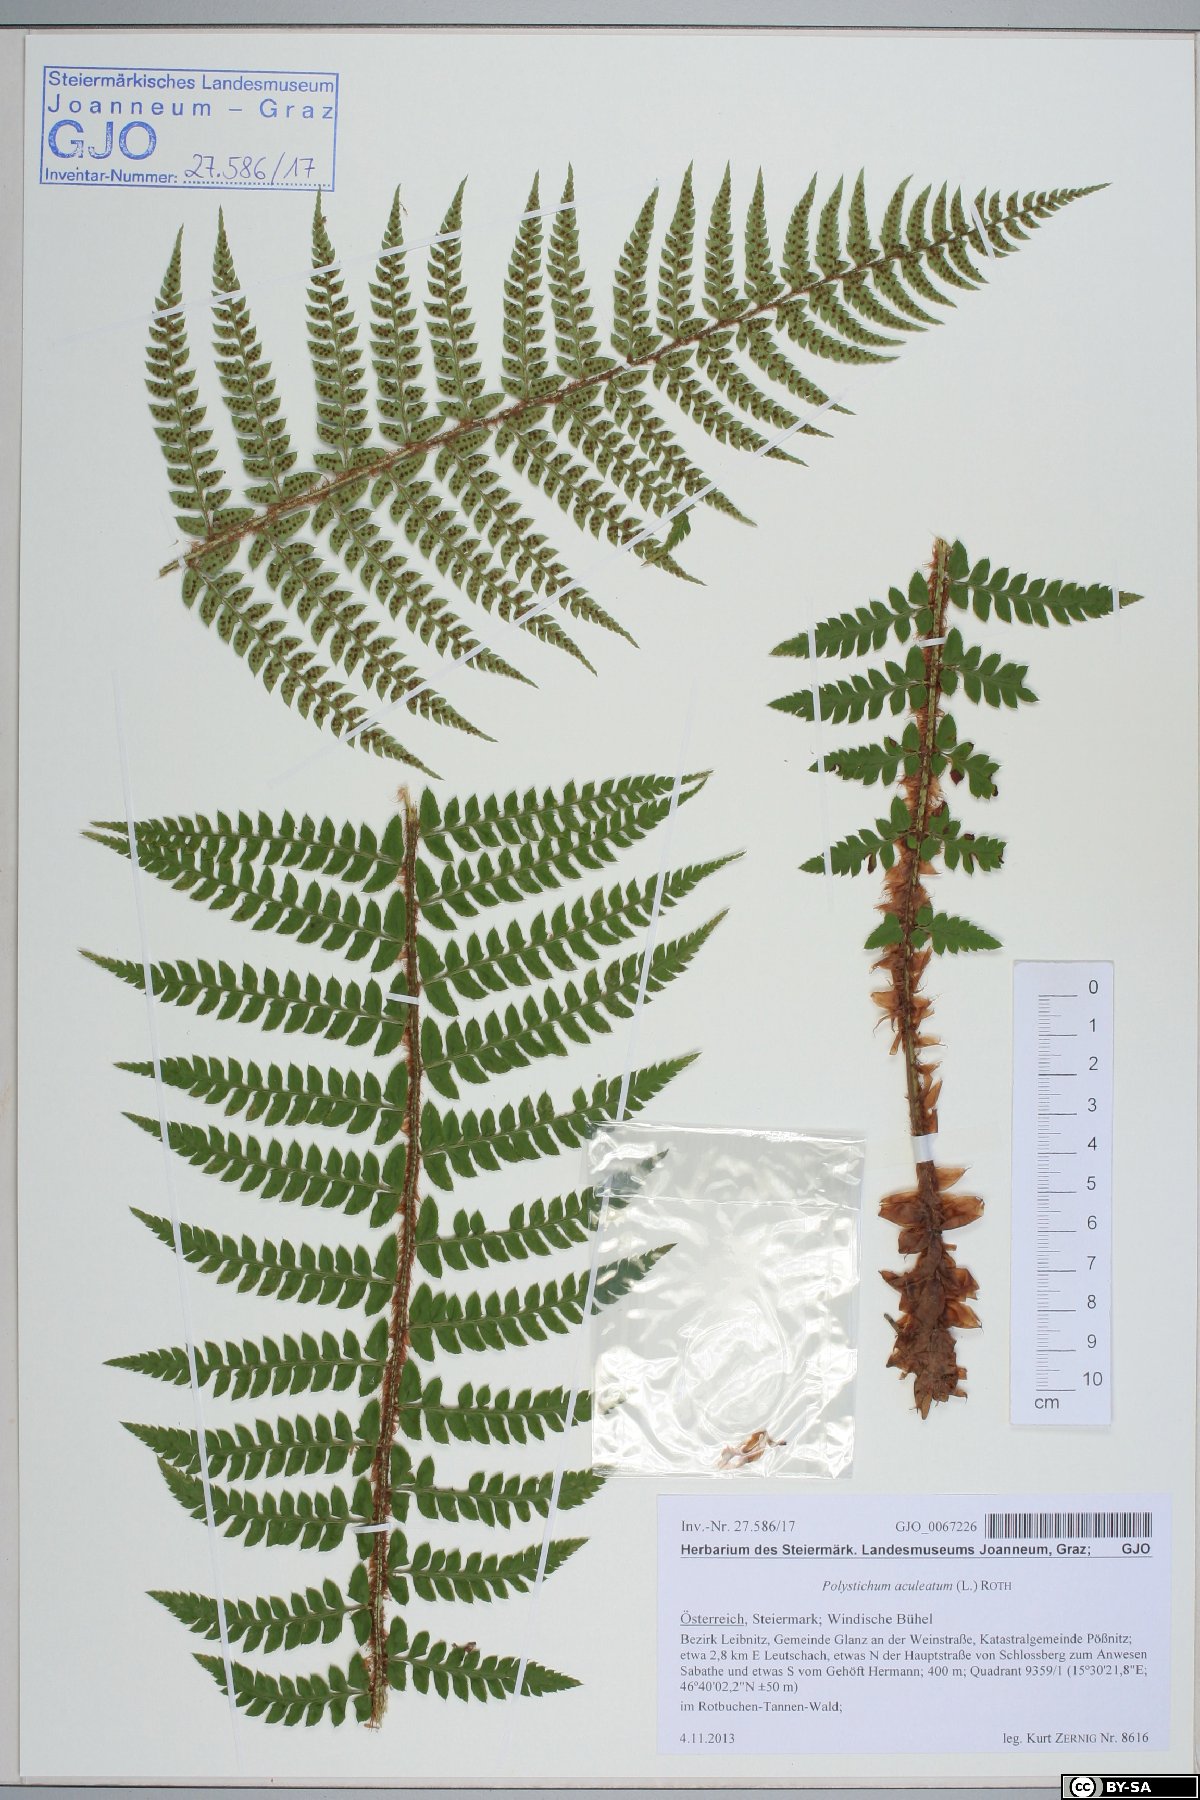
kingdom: Plantae
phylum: Tracheophyta
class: Polypodiopsida
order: Polypodiales
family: Dryopteridaceae
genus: Polystichum
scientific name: Polystichum aculeatum
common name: Hard shield-fern
